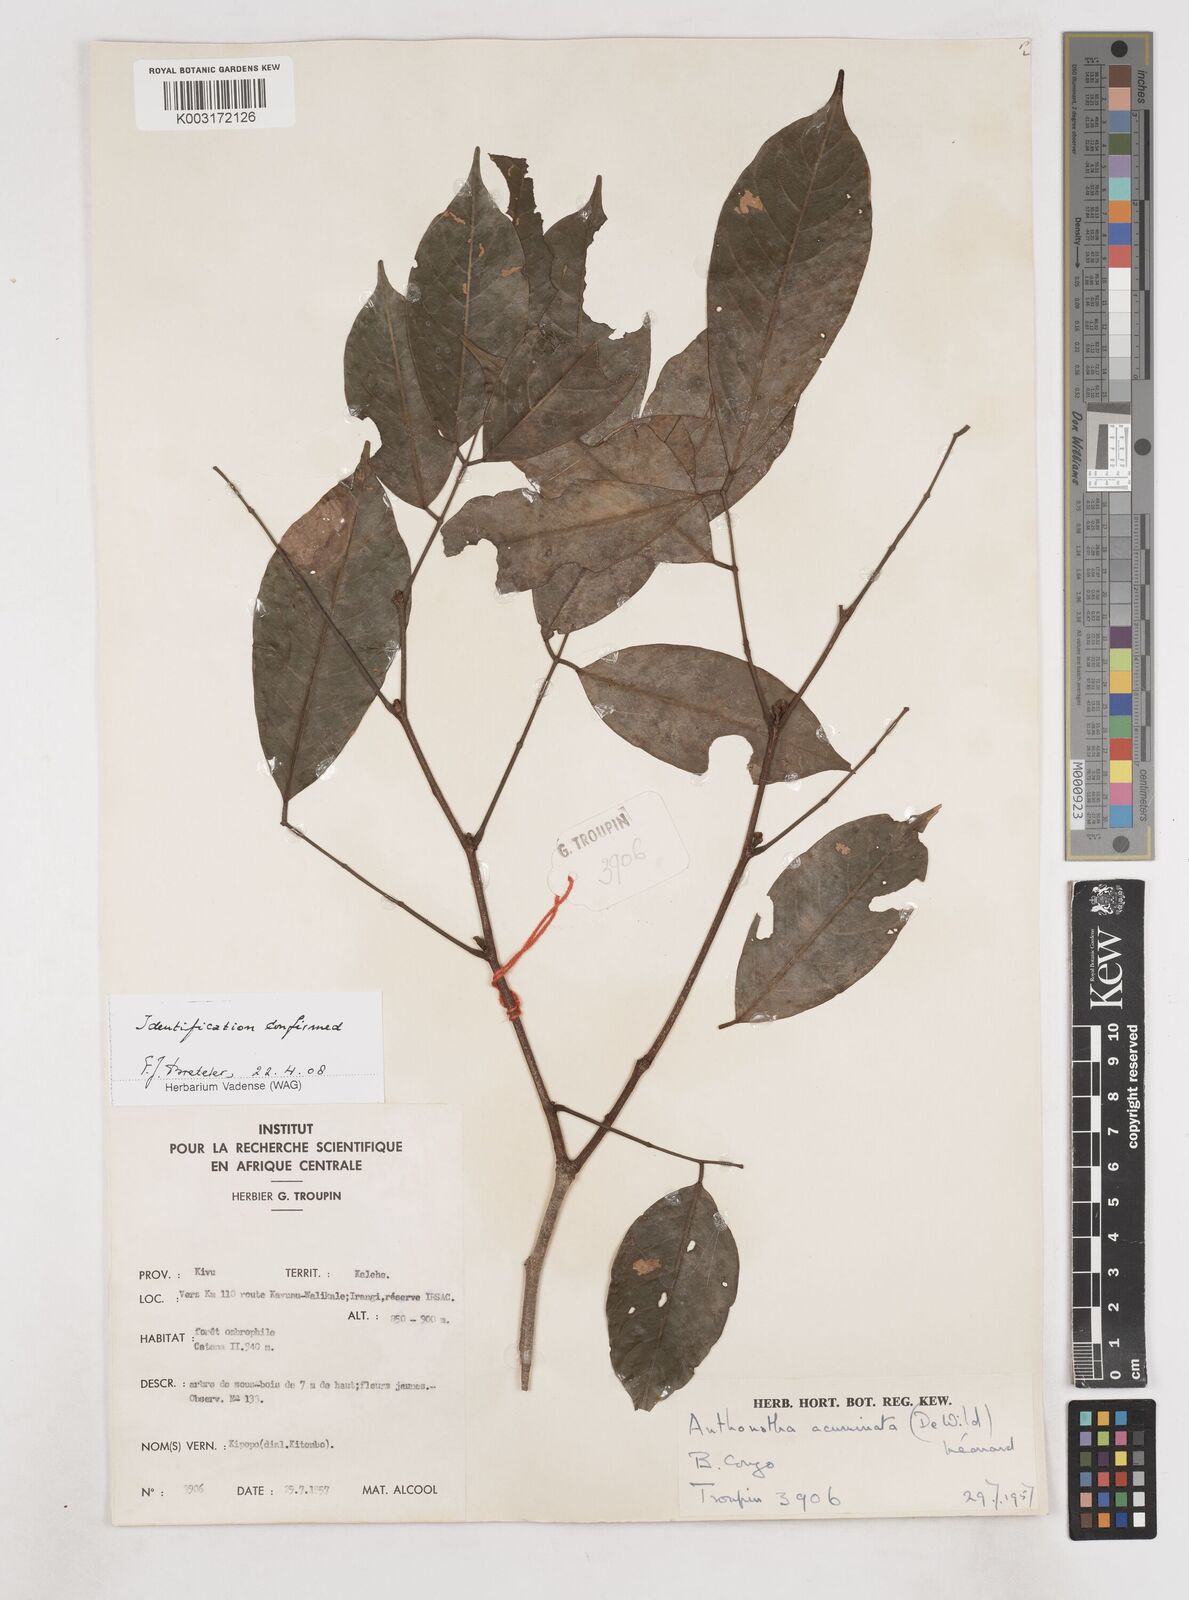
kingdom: Plantae
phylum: Tracheophyta
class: Magnoliopsida
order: Fabales
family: Fabaceae
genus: Anthonotha
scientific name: Anthonotha acuminata
